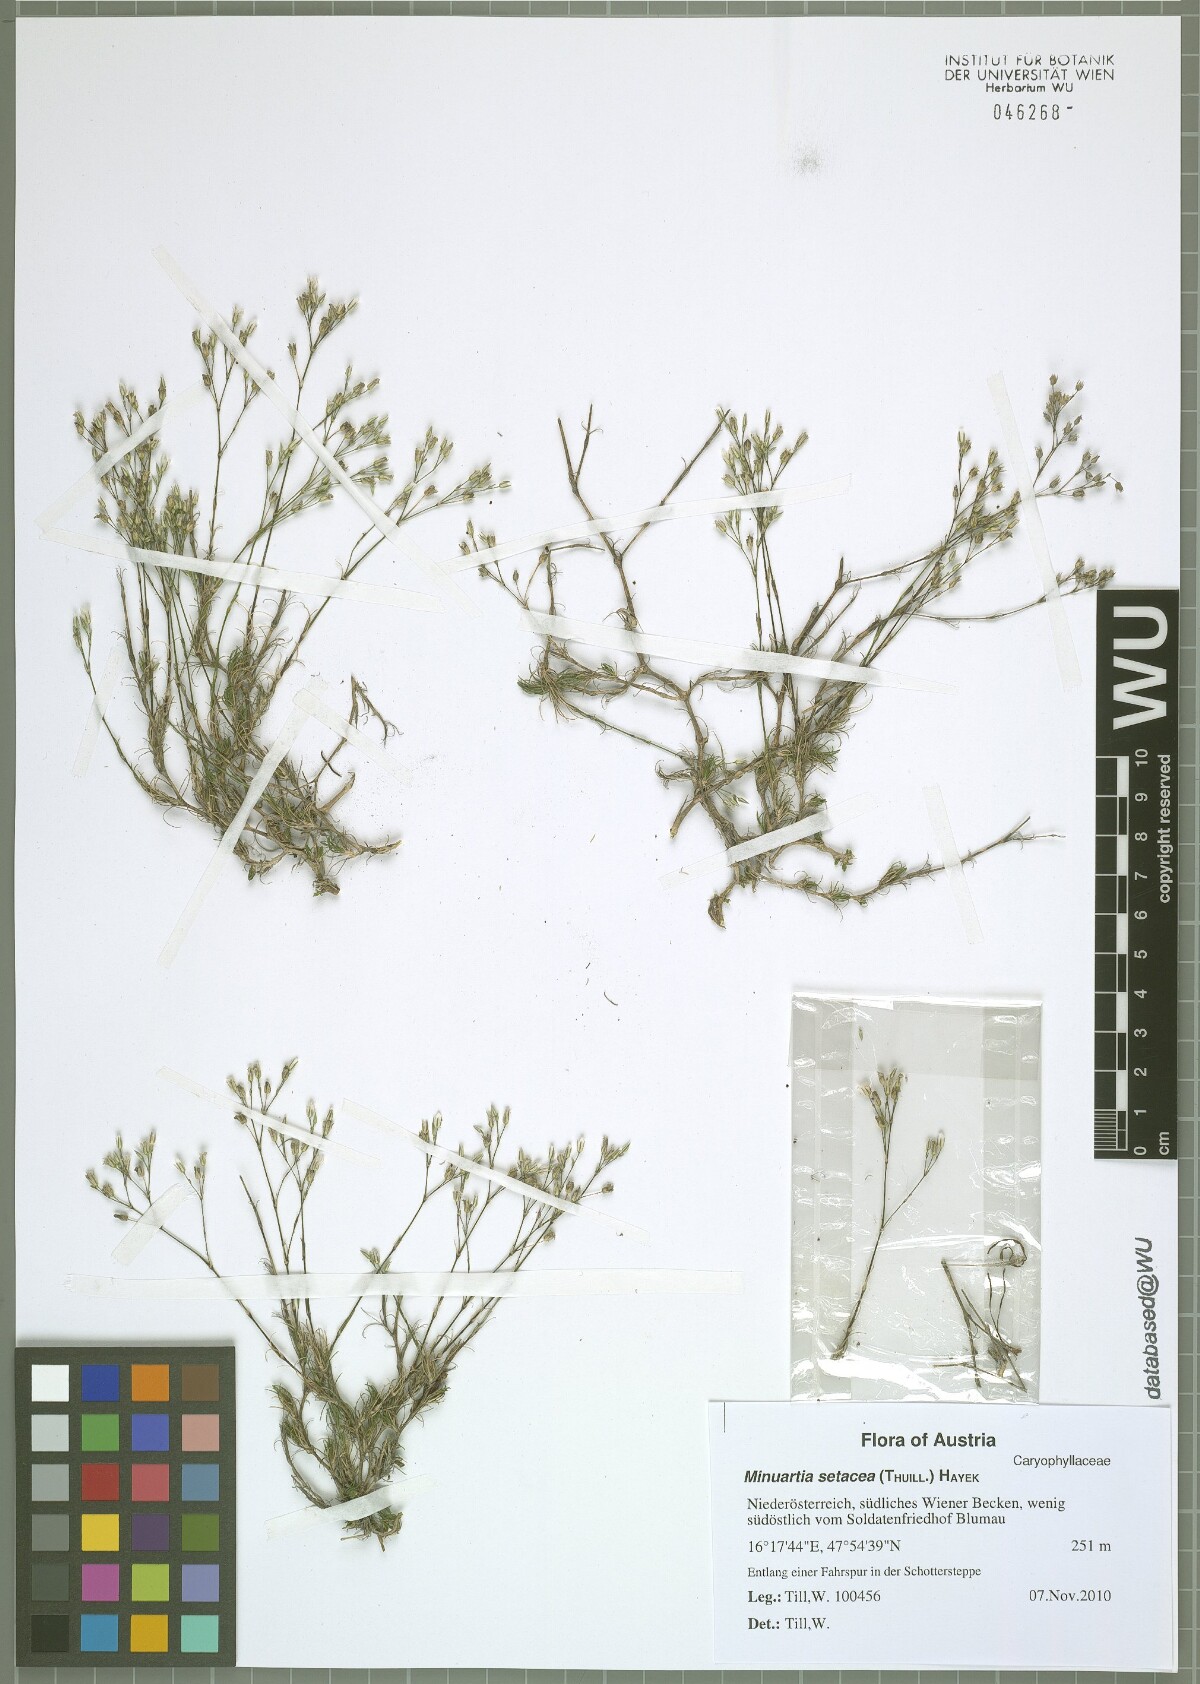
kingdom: Plantae
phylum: Tracheophyta
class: Magnoliopsida
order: Caryophyllales
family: Caryophyllaceae
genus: Minuartia
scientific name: Minuartia setacea
